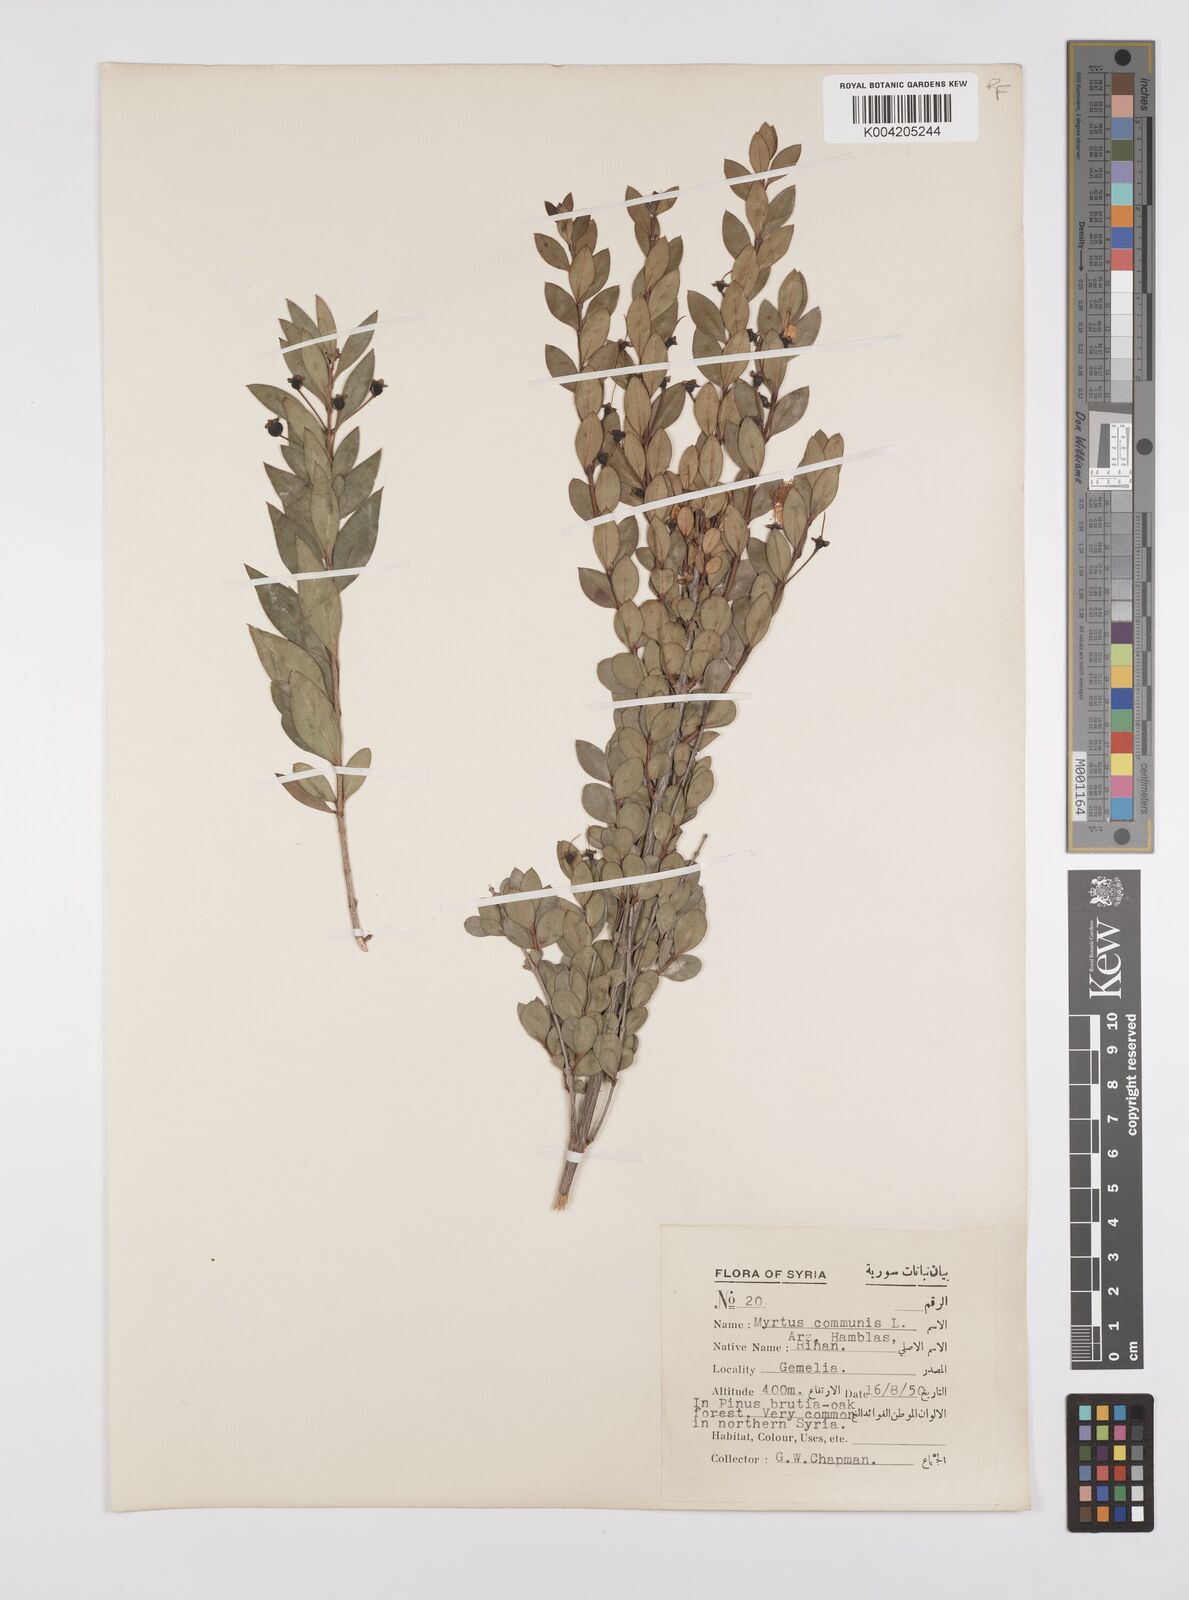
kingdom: Plantae
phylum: Tracheophyta
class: Magnoliopsida
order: Myrtales
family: Myrtaceae
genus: Myrtus
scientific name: Myrtus communis
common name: Myrtle
